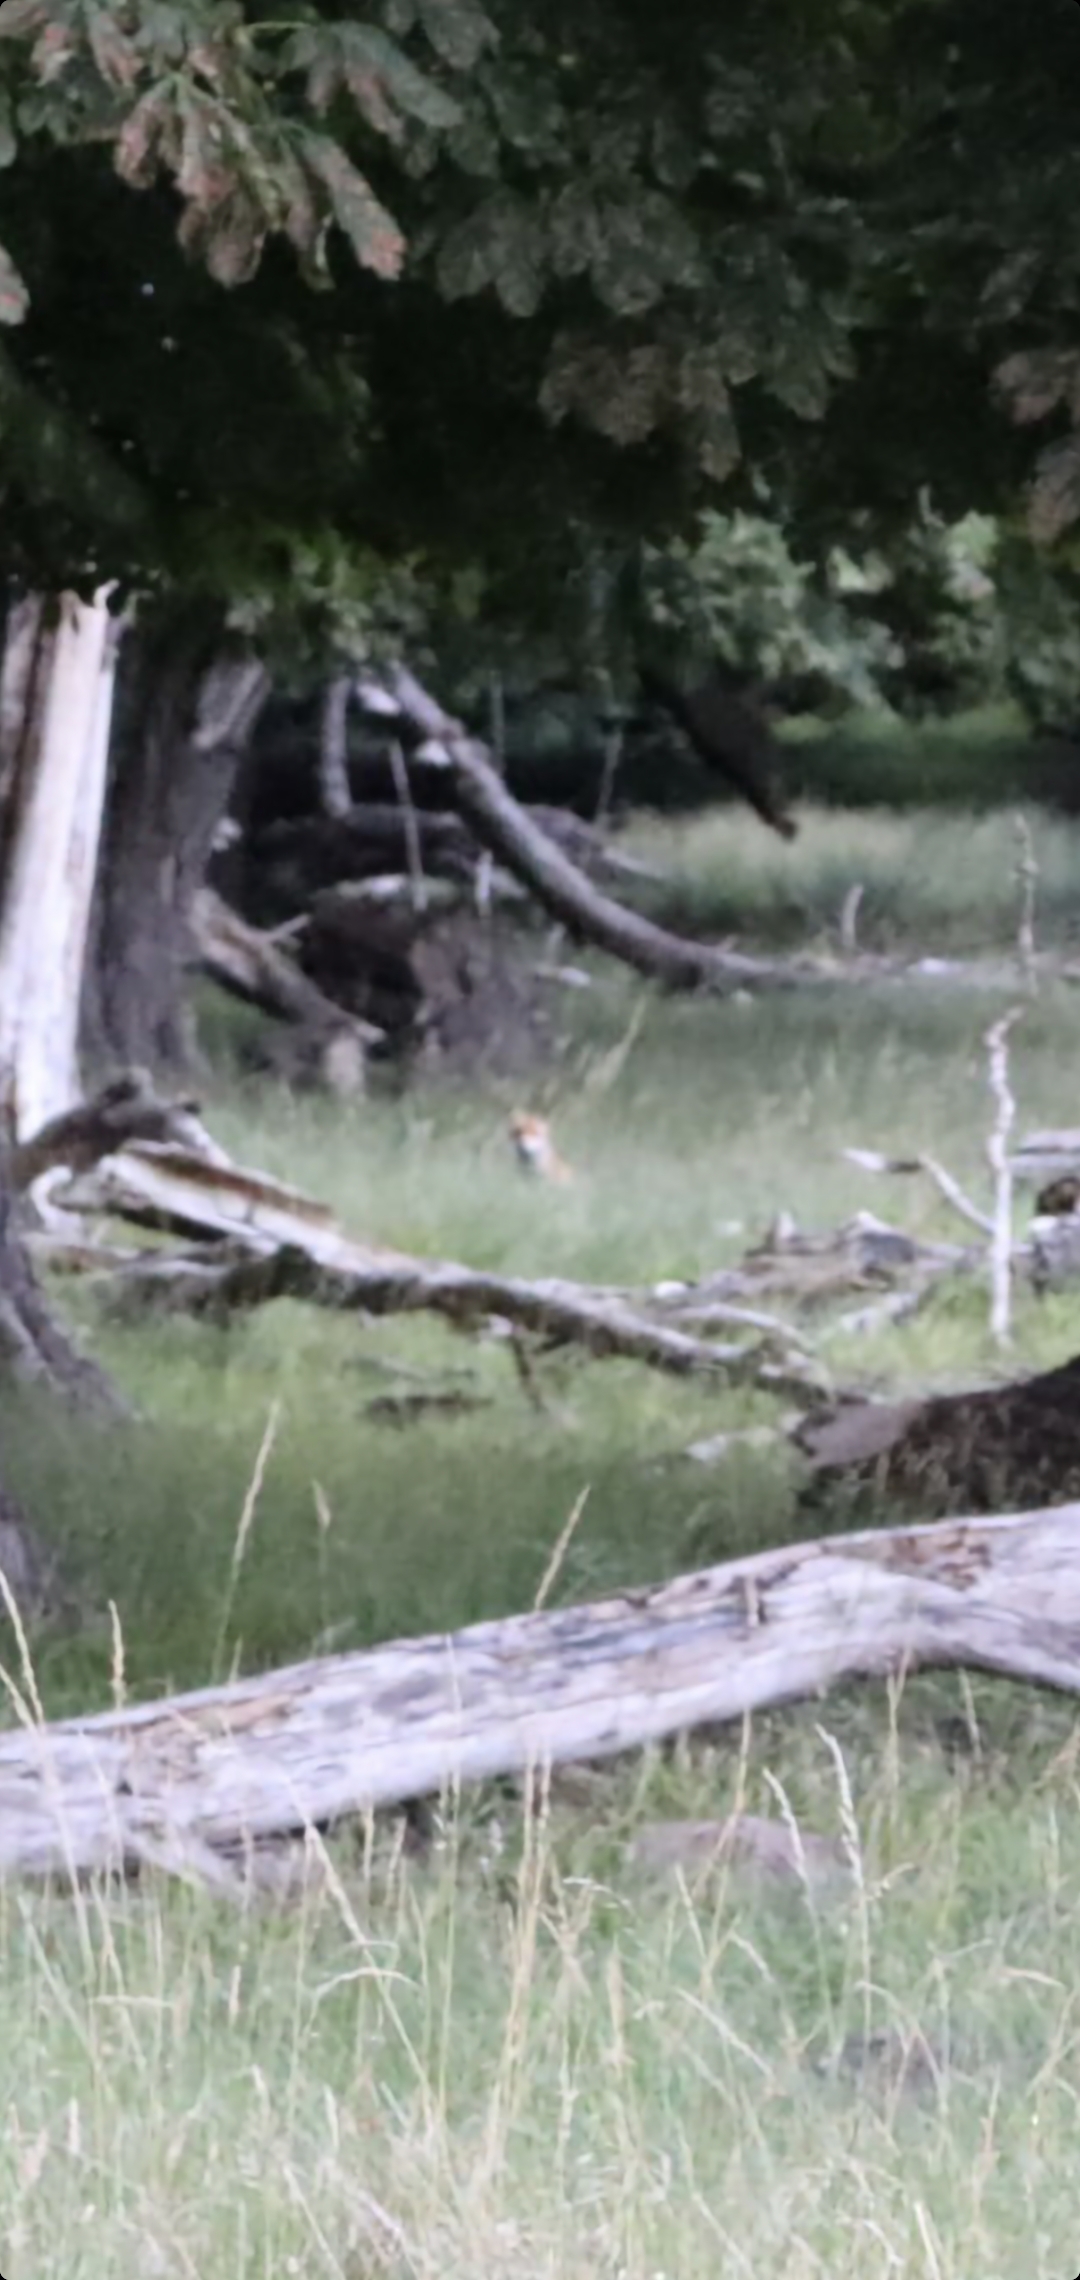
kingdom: Animalia
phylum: Chordata
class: Mammalia
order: Carnivora
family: Canidae
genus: Vulpes
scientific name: Vulpes vulpes
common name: Ræv
